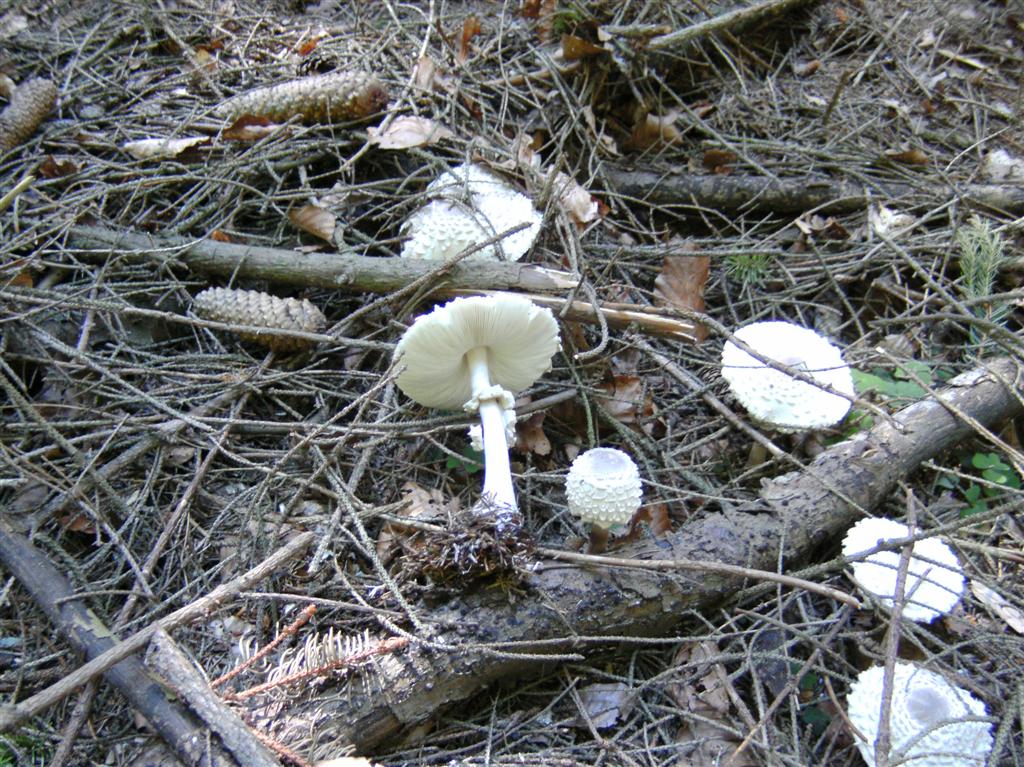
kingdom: Fungi
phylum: Basidiomycota
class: Agaricomycetes
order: Agaricales
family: Agaricaceae
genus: Leucoagaricus
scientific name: Leucoagaricus nympharum
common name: gran-silkehat
